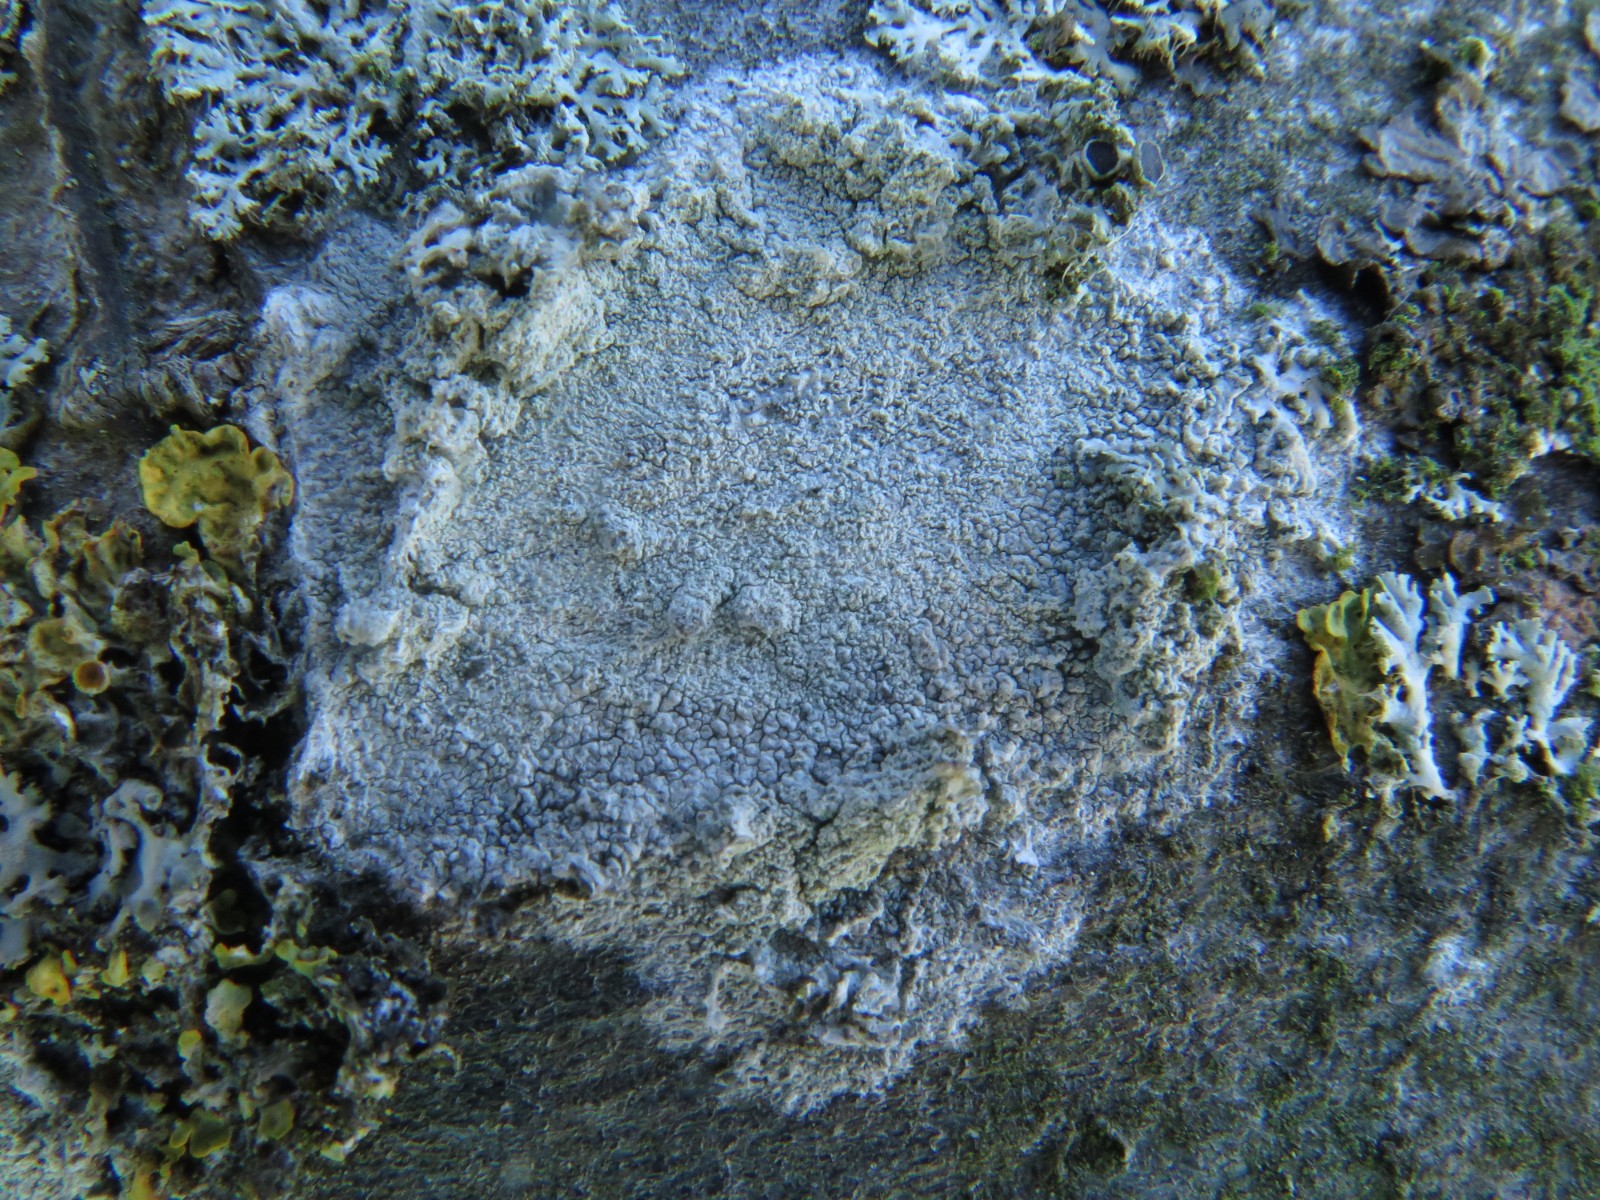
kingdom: Fungi
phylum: Ascomycota
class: Lecanoromycetes
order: Ostropales
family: Phlyctidaceae
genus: Phlyctis
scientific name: Phlyctis argena
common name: almindelig sølvlav
